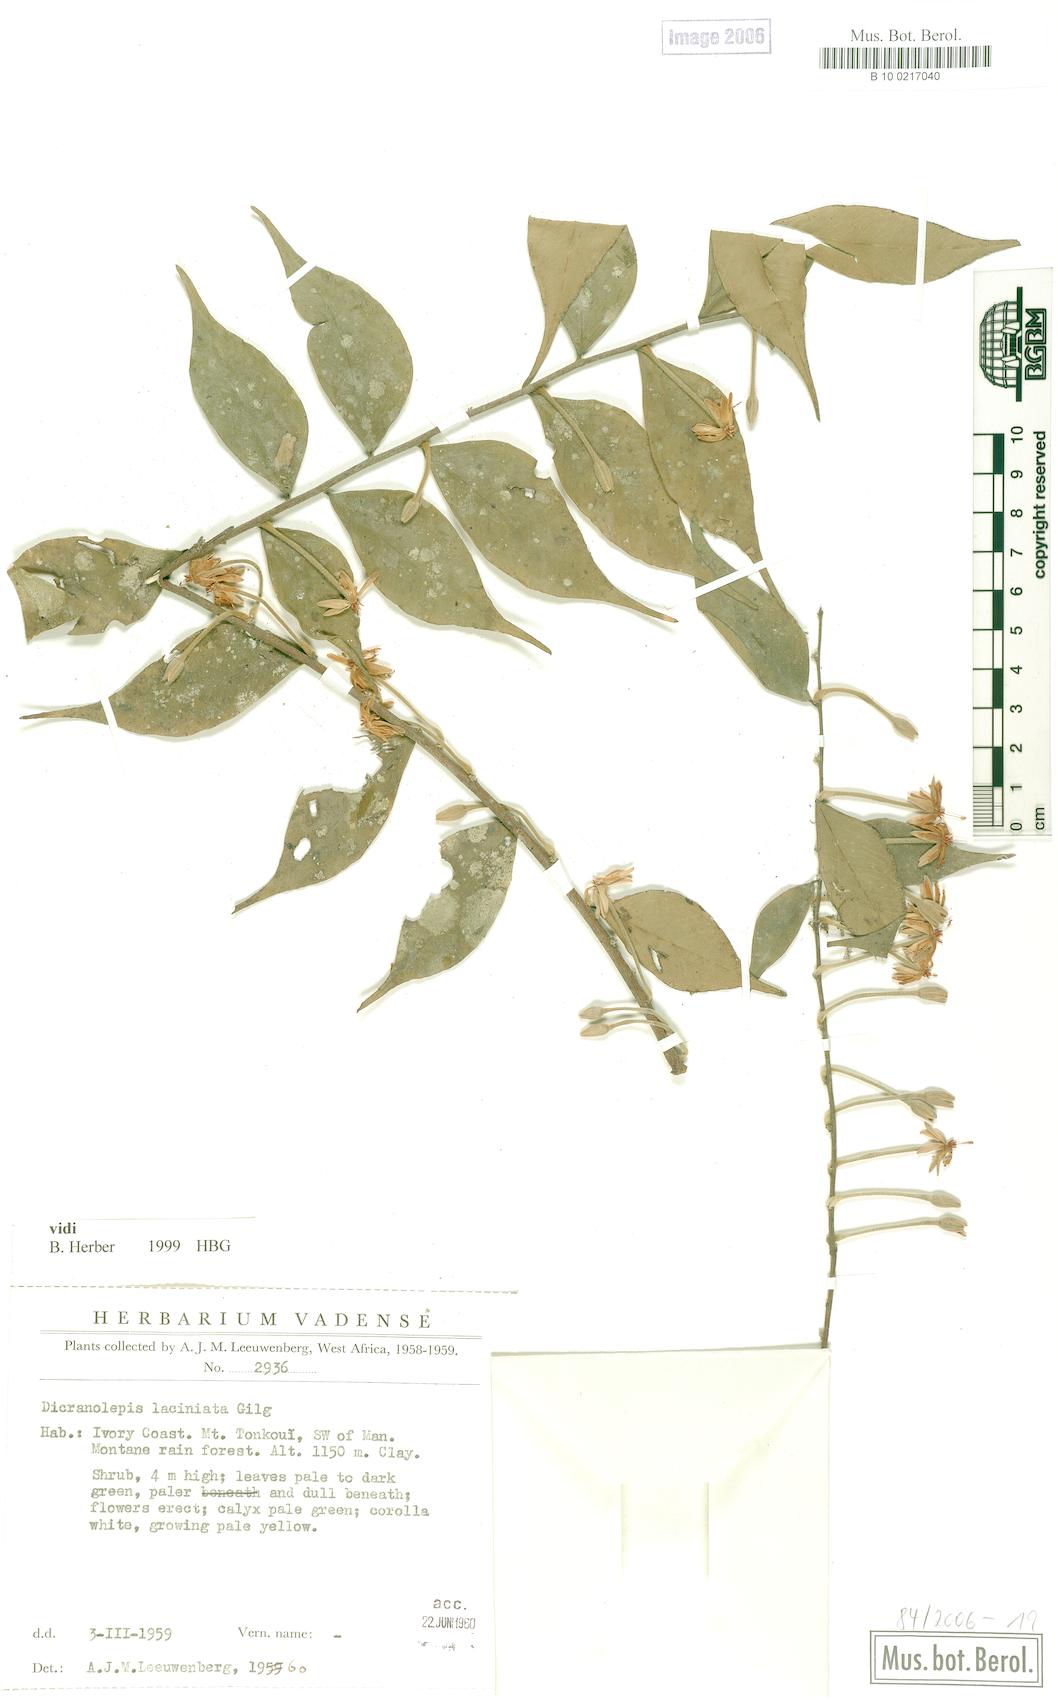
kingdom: Plantae
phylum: Tracheophyta
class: Magnoliopsida
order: Malvales
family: Thymelaeaceae
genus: Dicranolepis
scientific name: Dicranolepis laciniata
